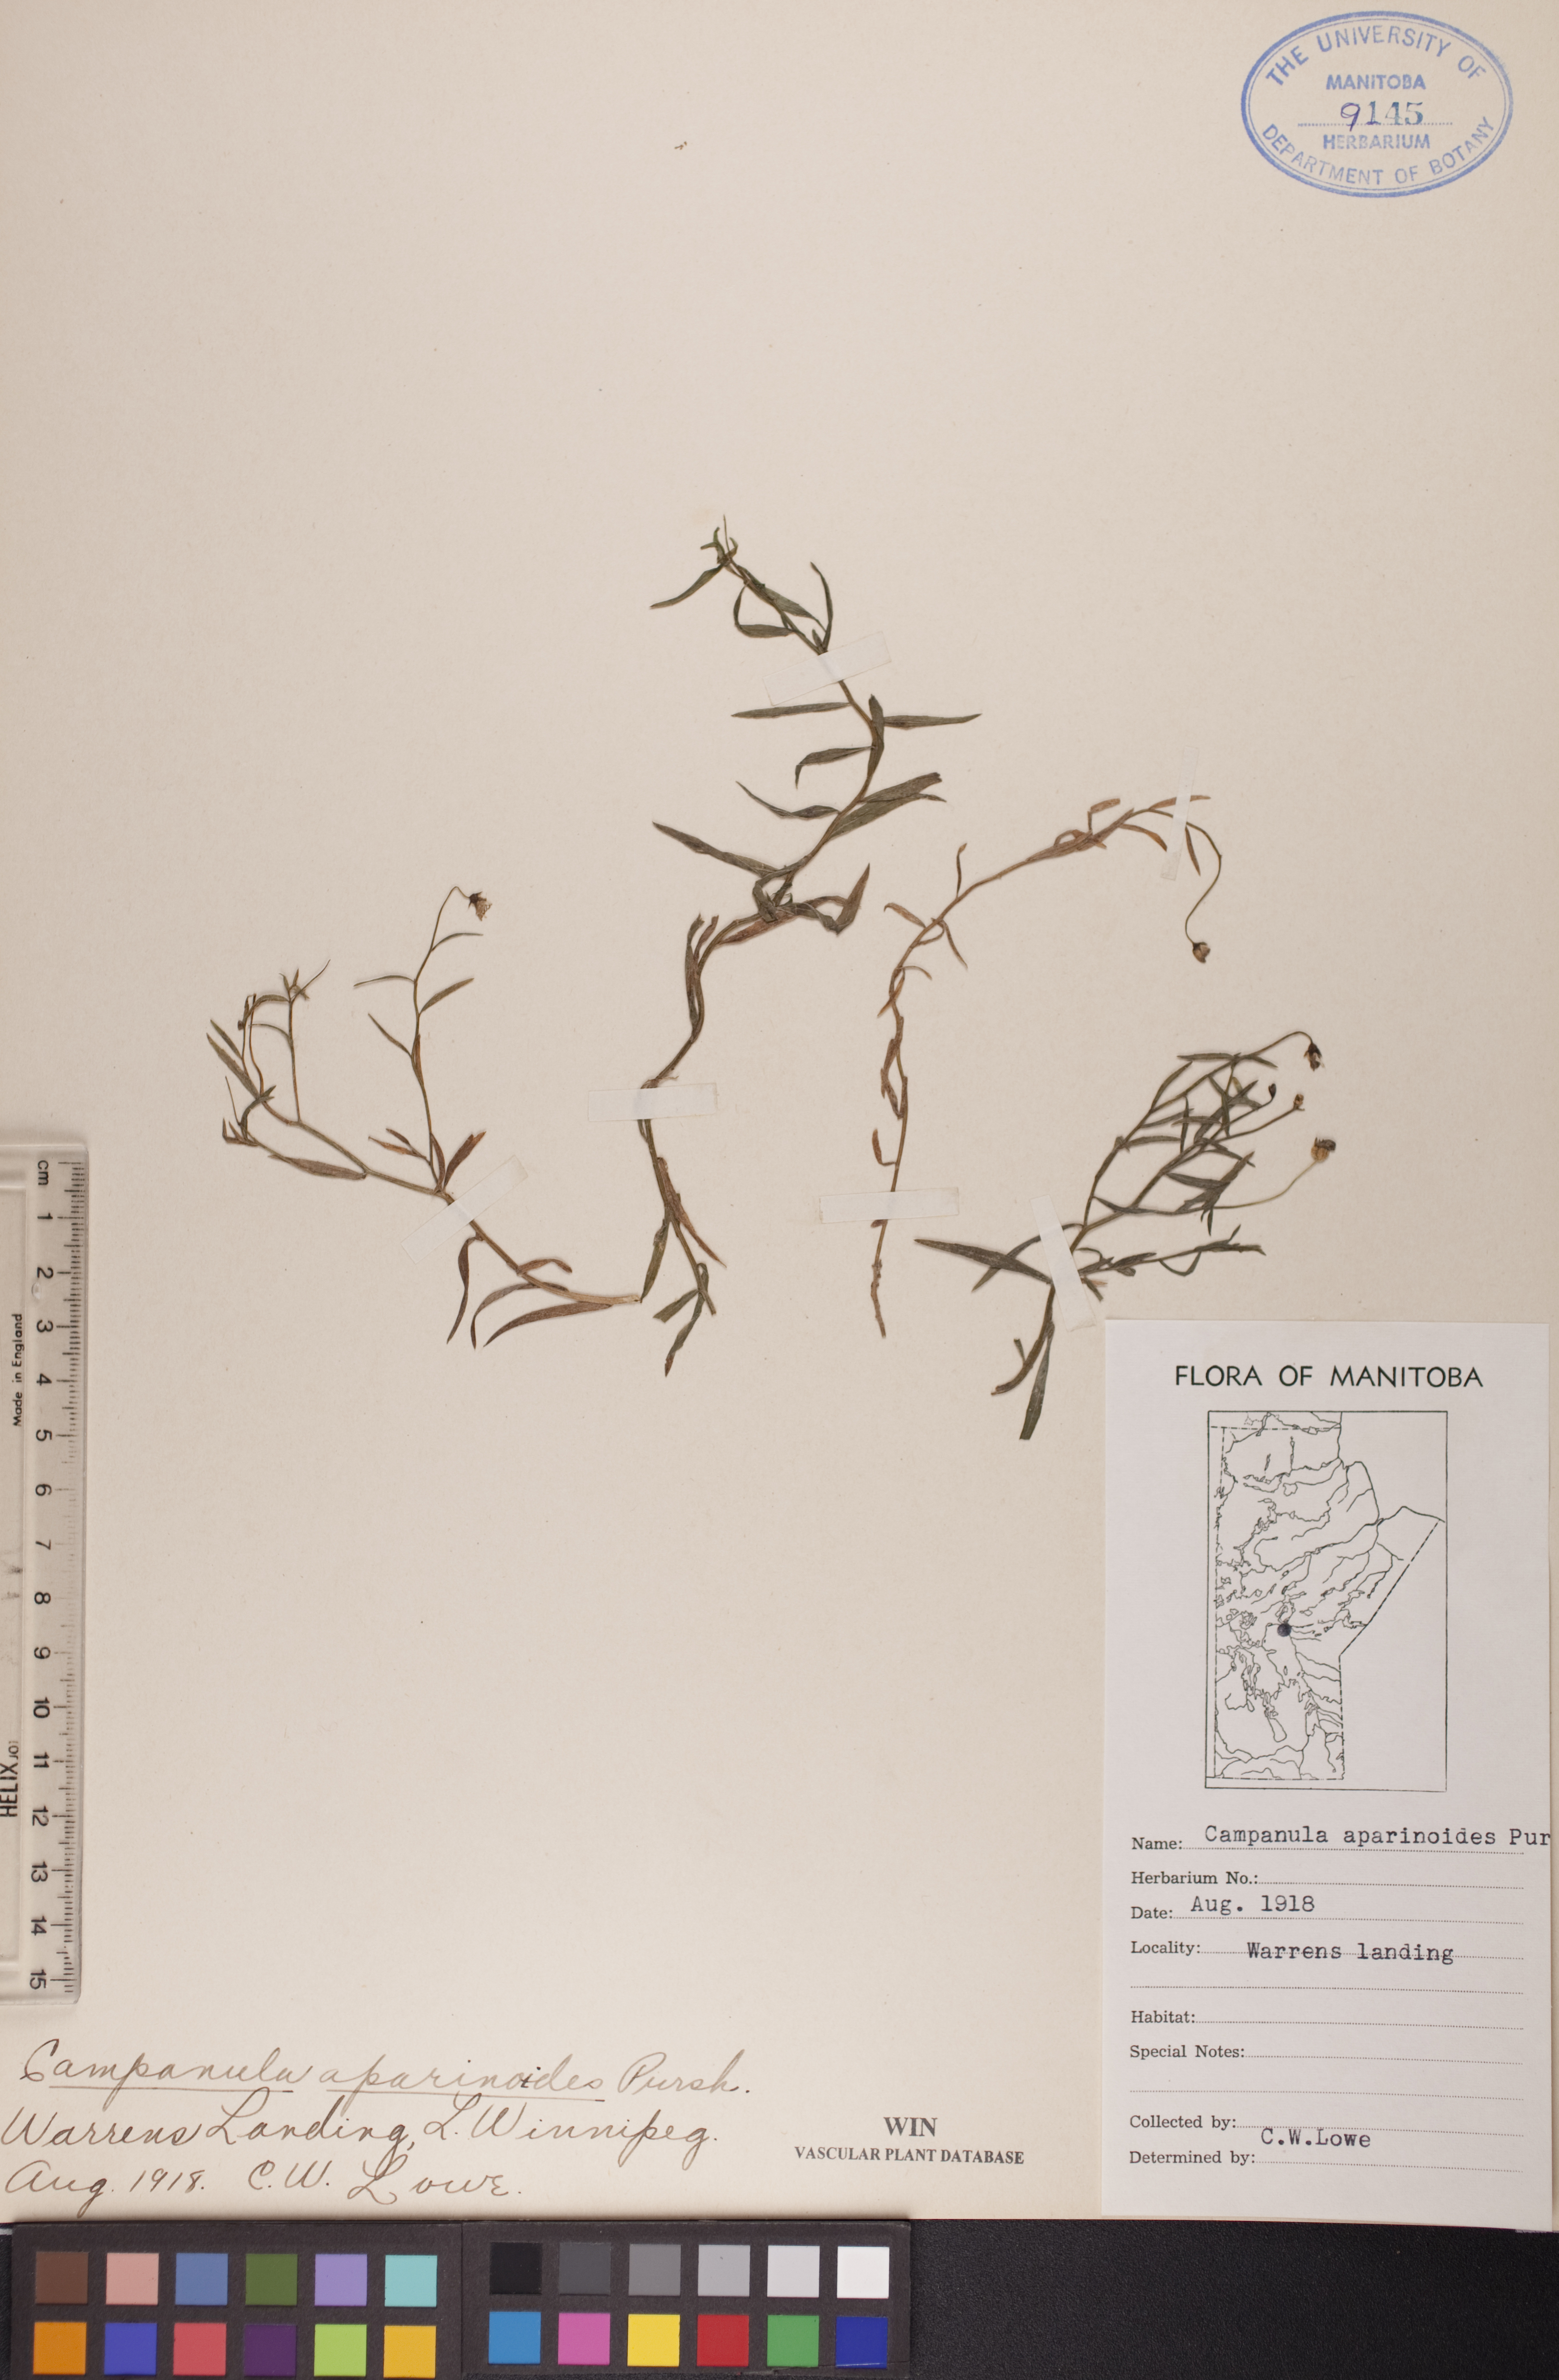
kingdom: Plantae
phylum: Tracheophyta
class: Magnoliopsida
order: Asterales
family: Campanulaceae
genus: Palustricodon
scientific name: Palustricodon aparinoides
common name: Bedstraw bellflower
